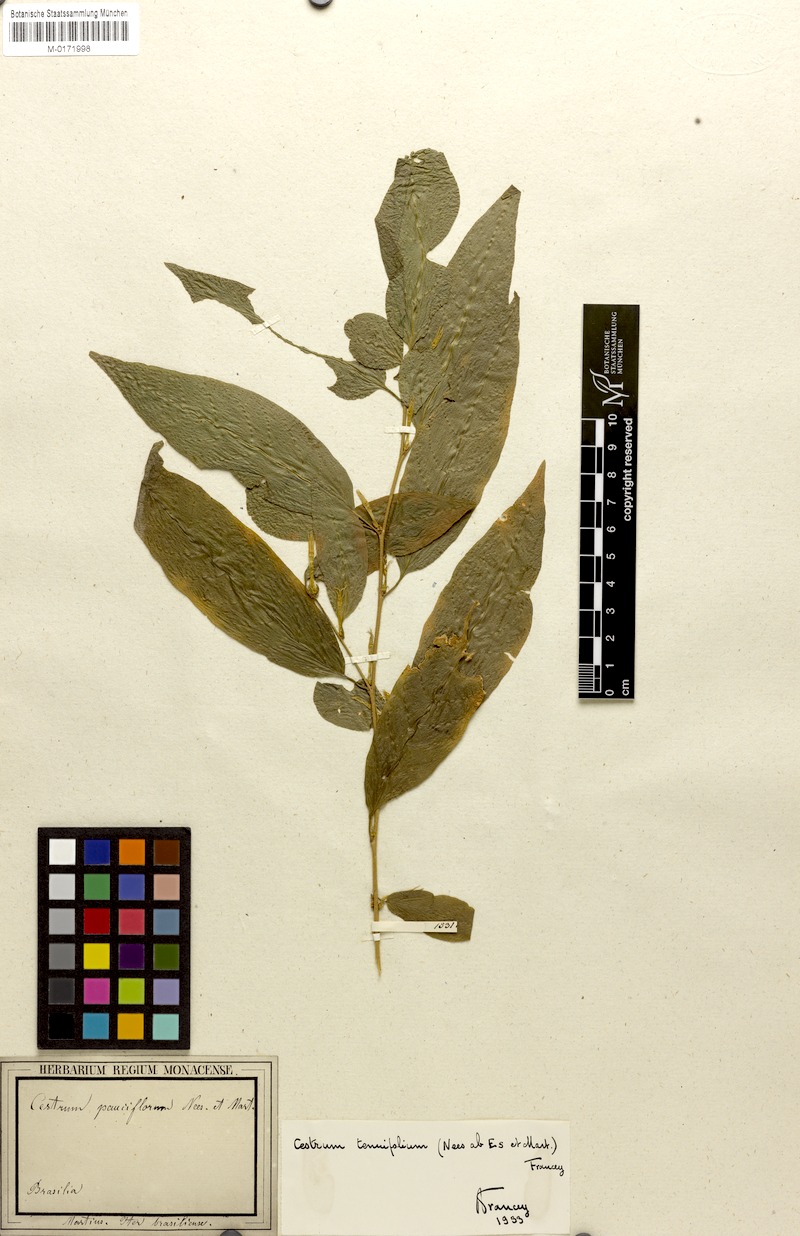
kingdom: Plantae
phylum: Tracheophyta
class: Magnoliopsida
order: Solanales
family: Solanaceae
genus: Cestrum
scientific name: Cestrum tenuifolium
